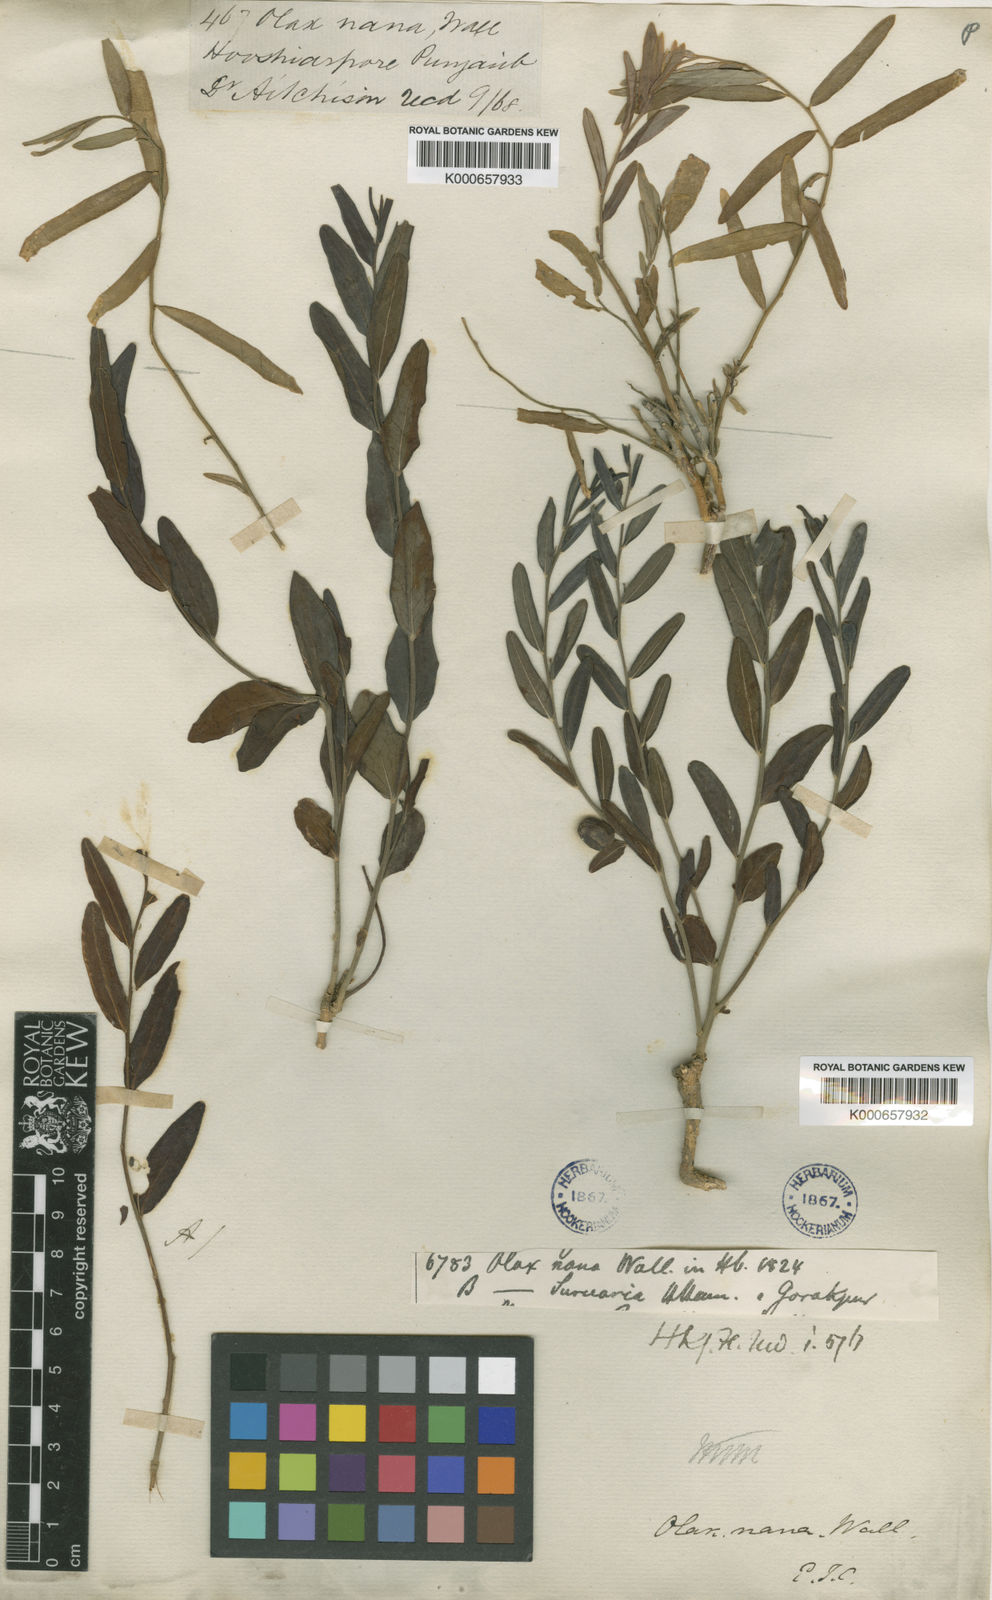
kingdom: Plantae
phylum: Tracheophyta
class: Magnoliopsida
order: Santalales
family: Olacaceae
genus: Olax
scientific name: Olax
